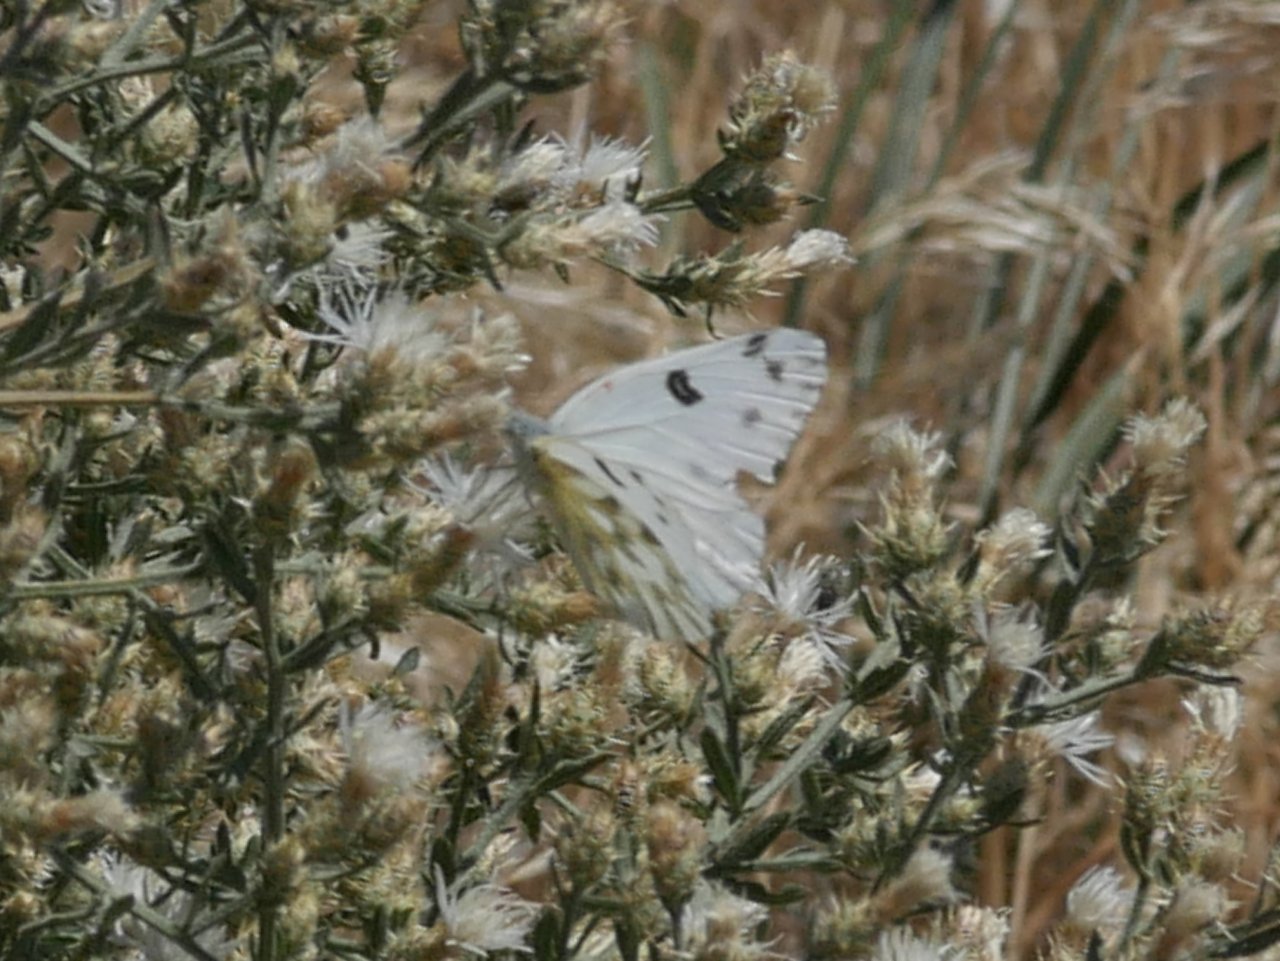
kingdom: Animalia
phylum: Arthropoda
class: Insecta
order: Lepidoptera
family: Pieridae
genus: Pontia
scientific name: Pontia beckerii
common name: Becker's White
